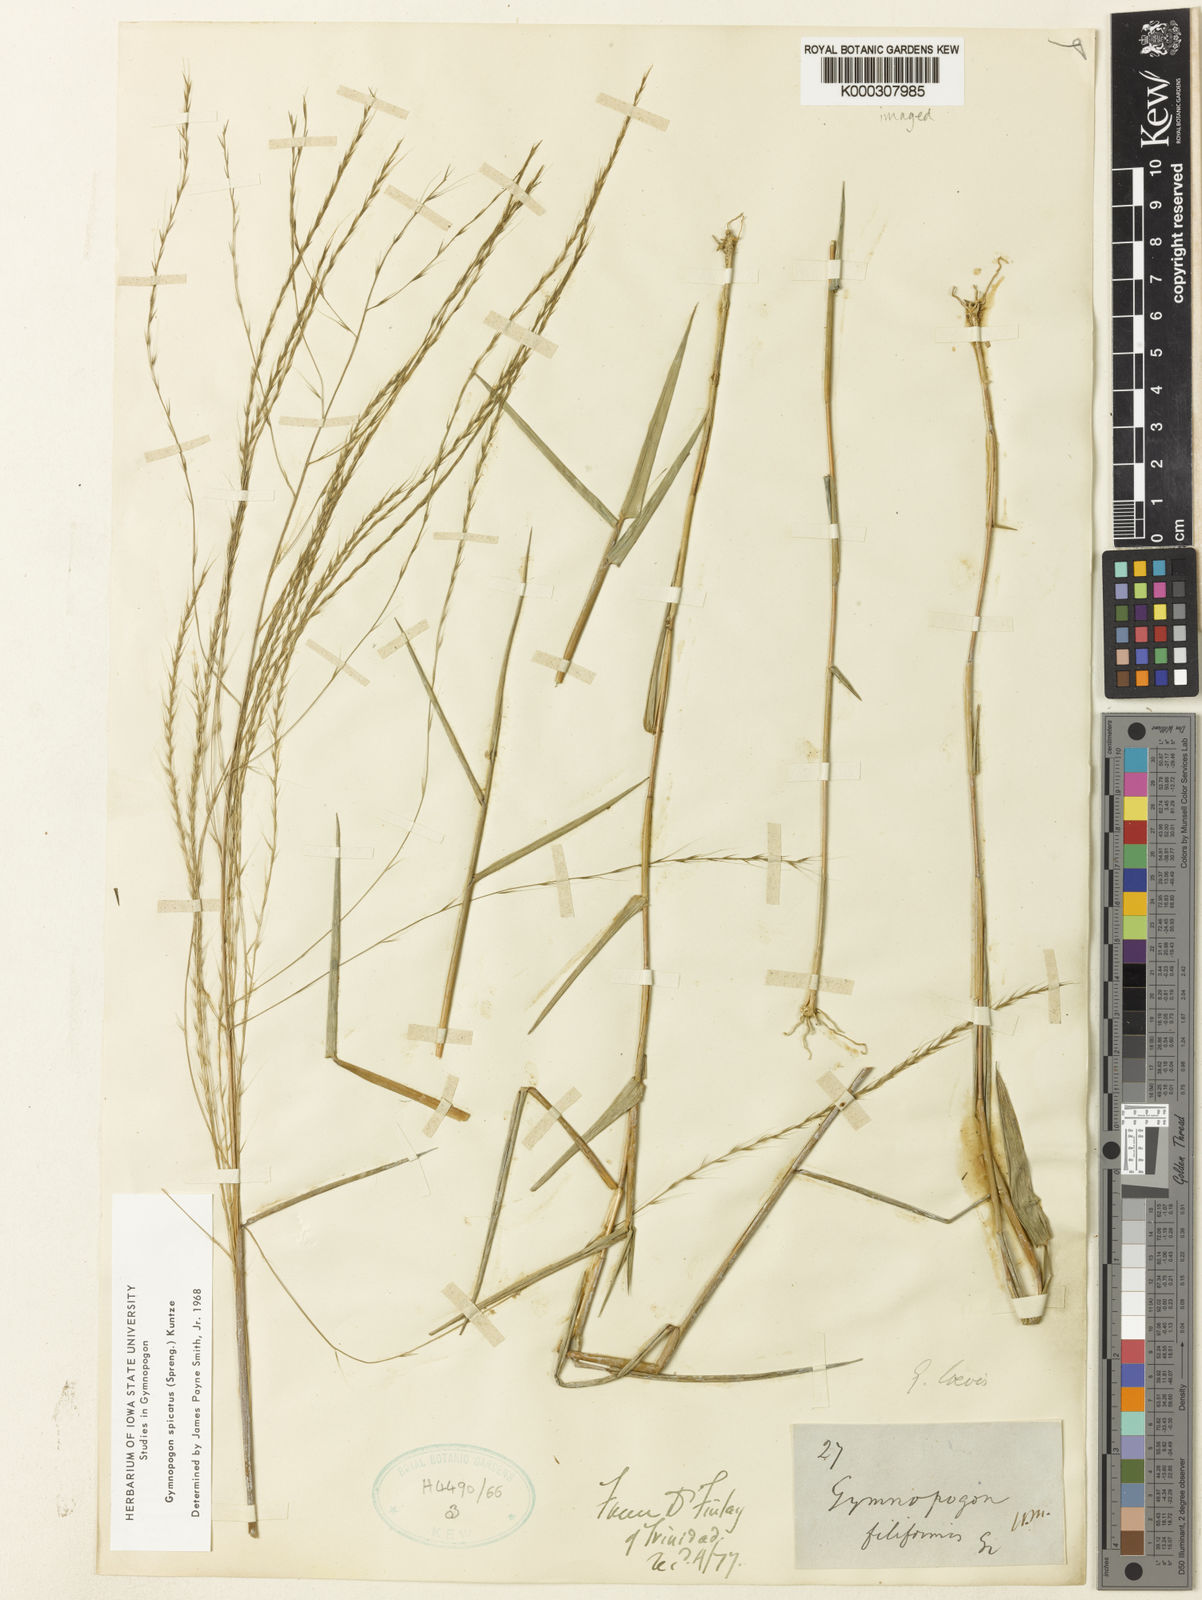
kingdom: Plantae
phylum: Tracheophyta
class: Liliopsida
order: Poales
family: Poaceae
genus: Gymnopogon
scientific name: Gymnopogon spicatus
